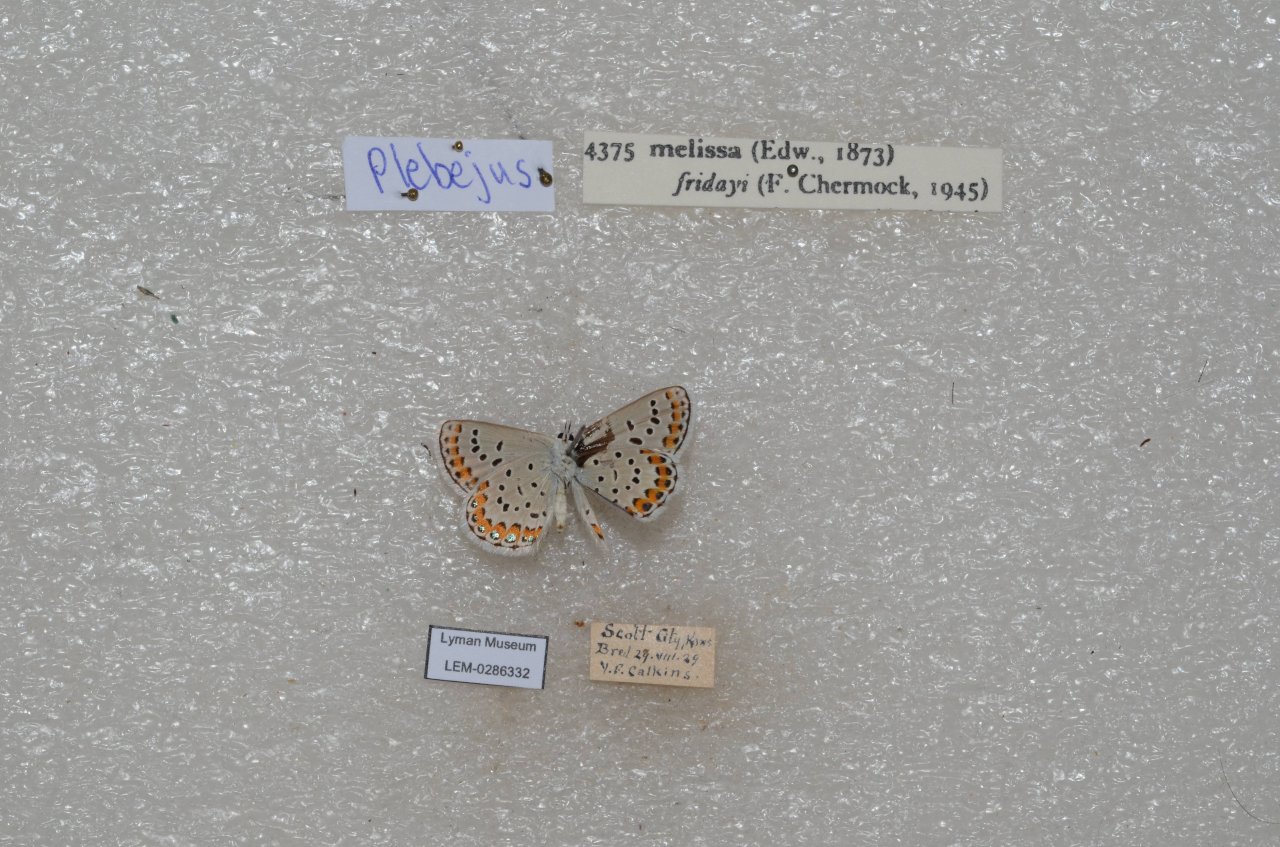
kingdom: Animalia
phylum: Arthropoda
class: Insecta
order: Lepidoptera
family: Lycaenidae
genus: Lycaeides
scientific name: Lycaeides melissa
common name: Melissa Blue
